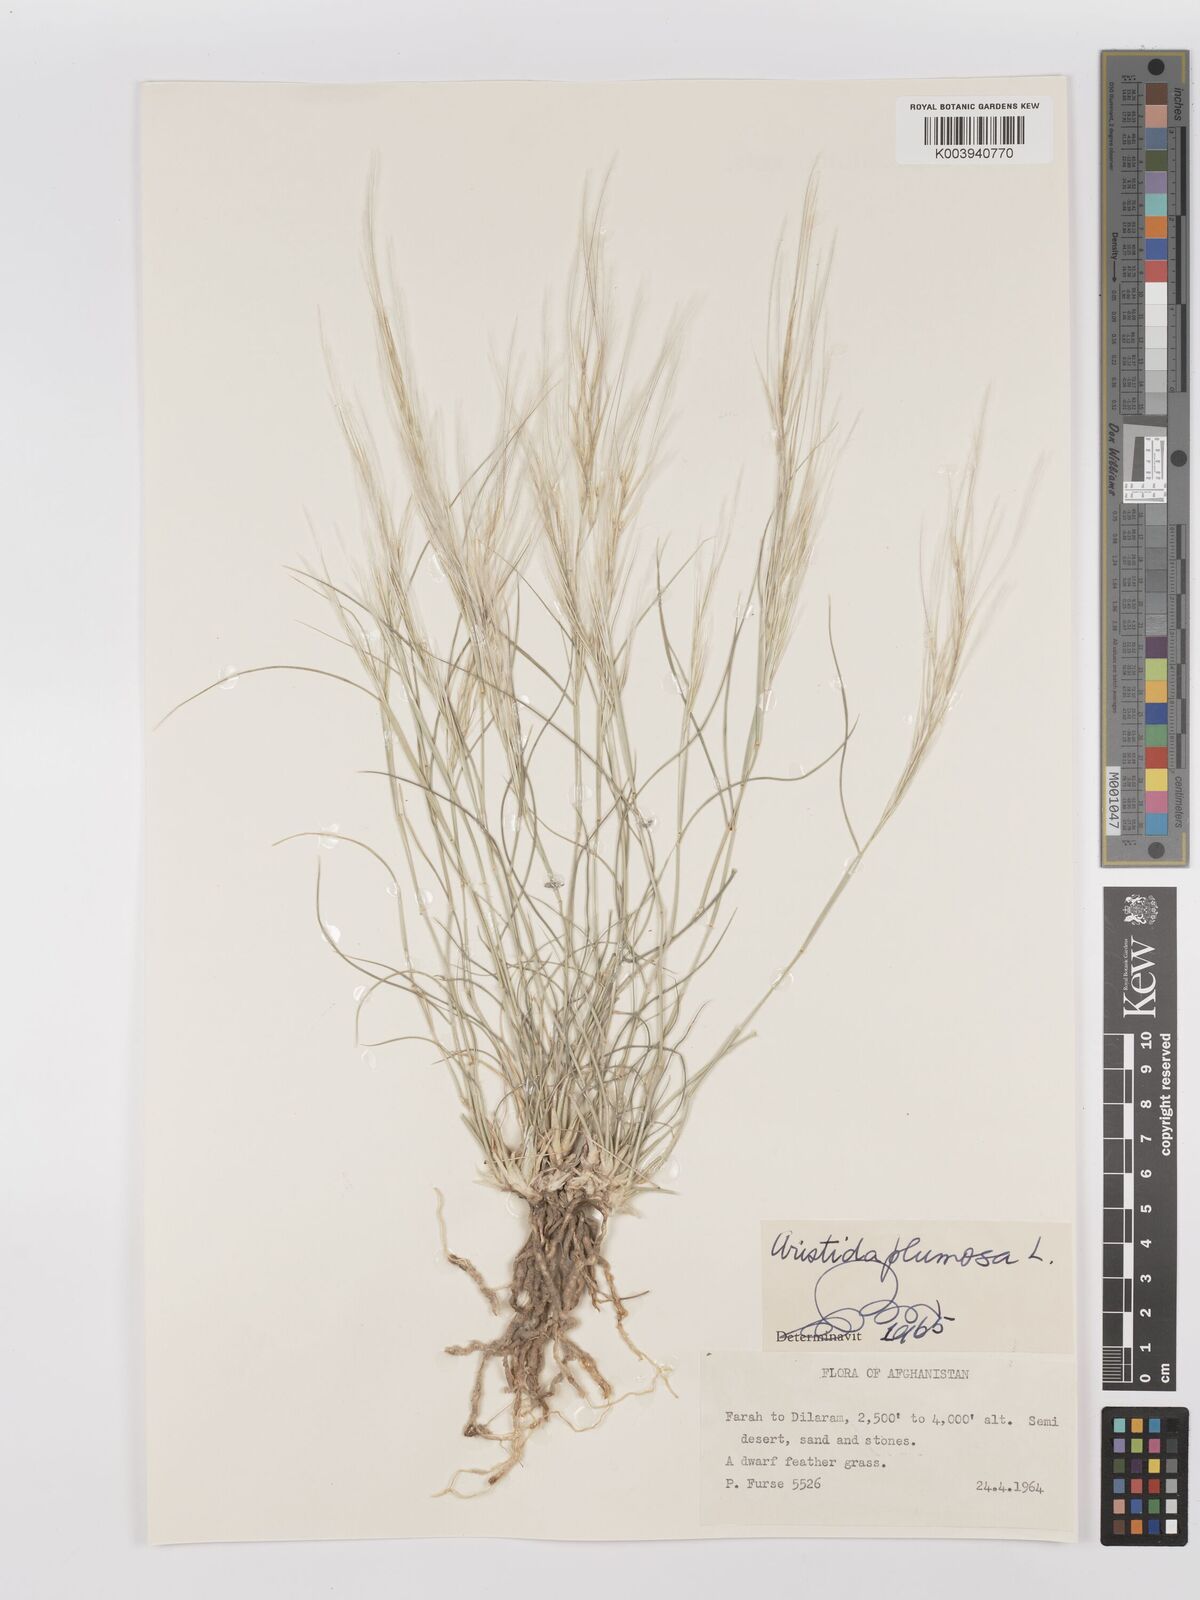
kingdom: Plantae
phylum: Tracheophyta
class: Liliopsida
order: Poales
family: Poaceae
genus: Stipagrostis
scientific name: Stipagrostis plumosa
